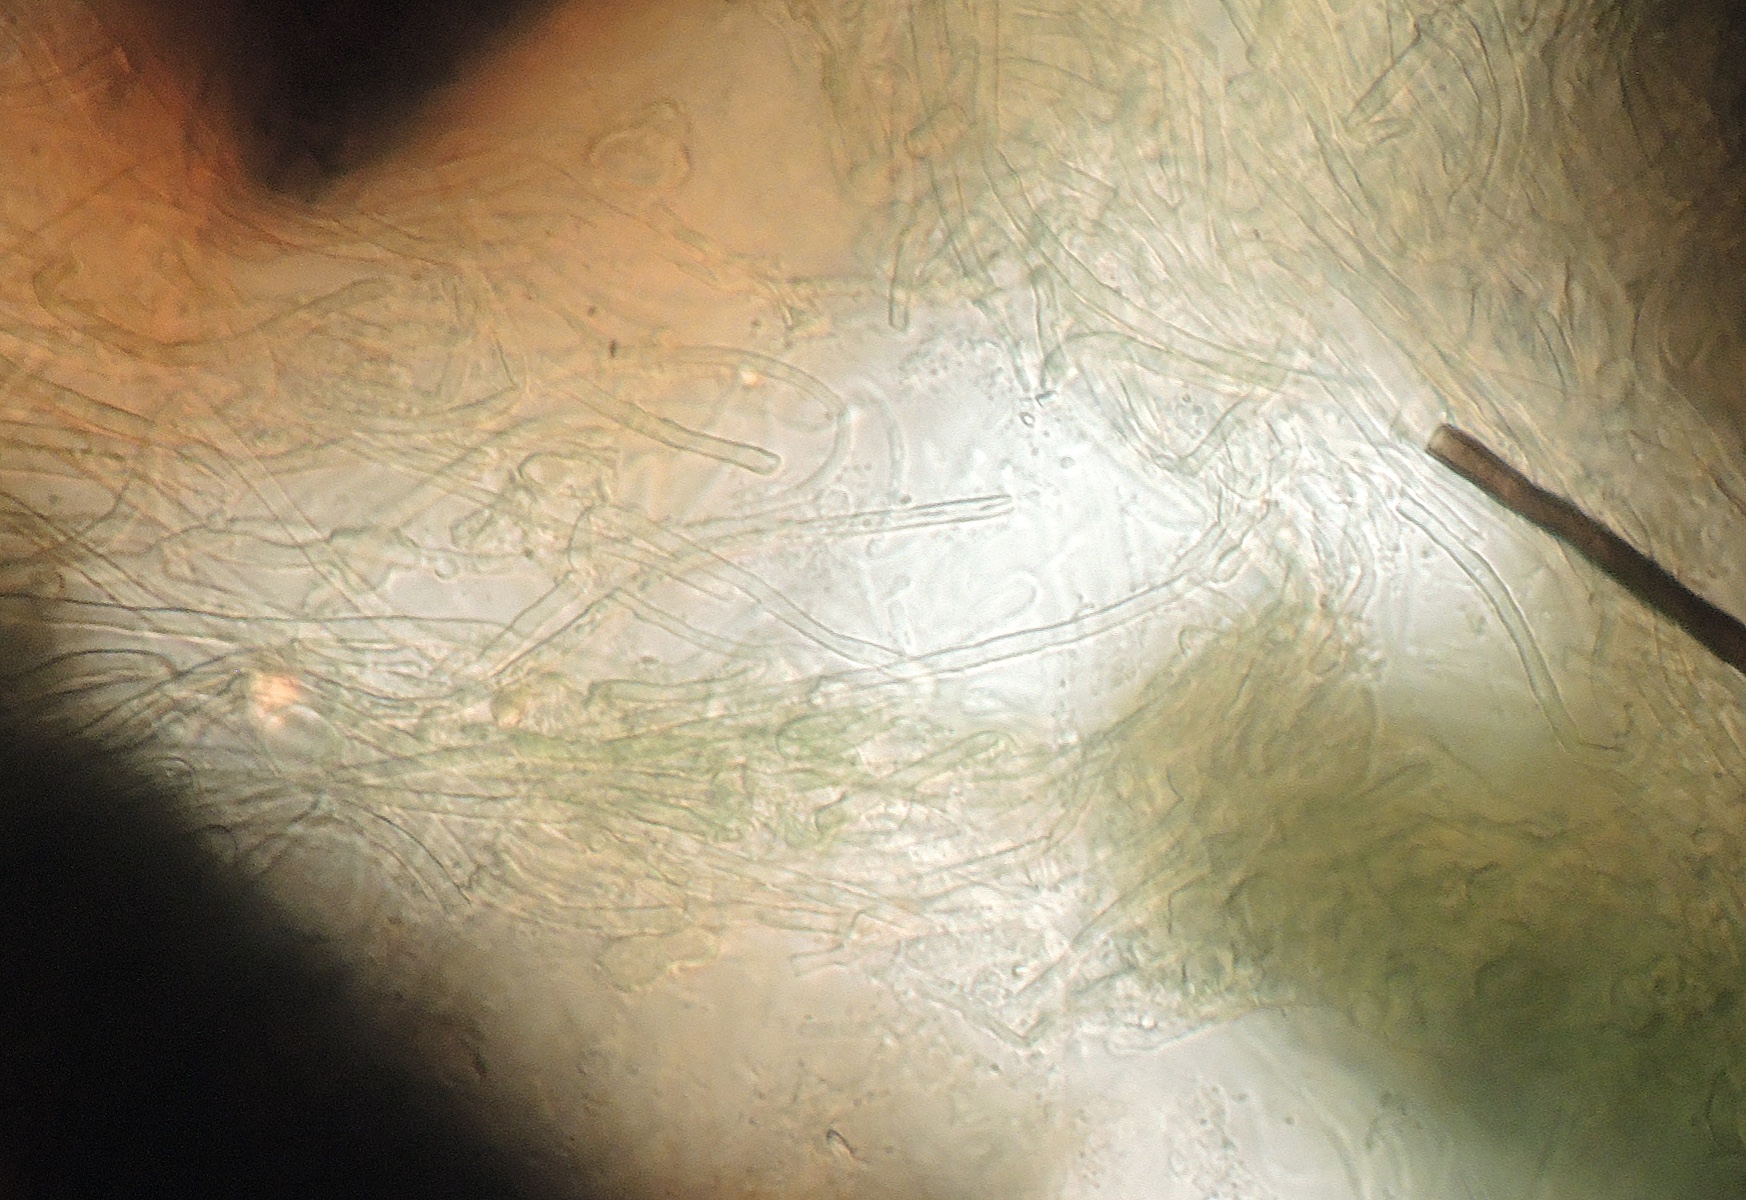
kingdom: Fungi
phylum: Ascomycota
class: Dothideomycetes
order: Pleosporales
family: Delitschiaceae
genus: Delitschia
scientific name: Delitschia
